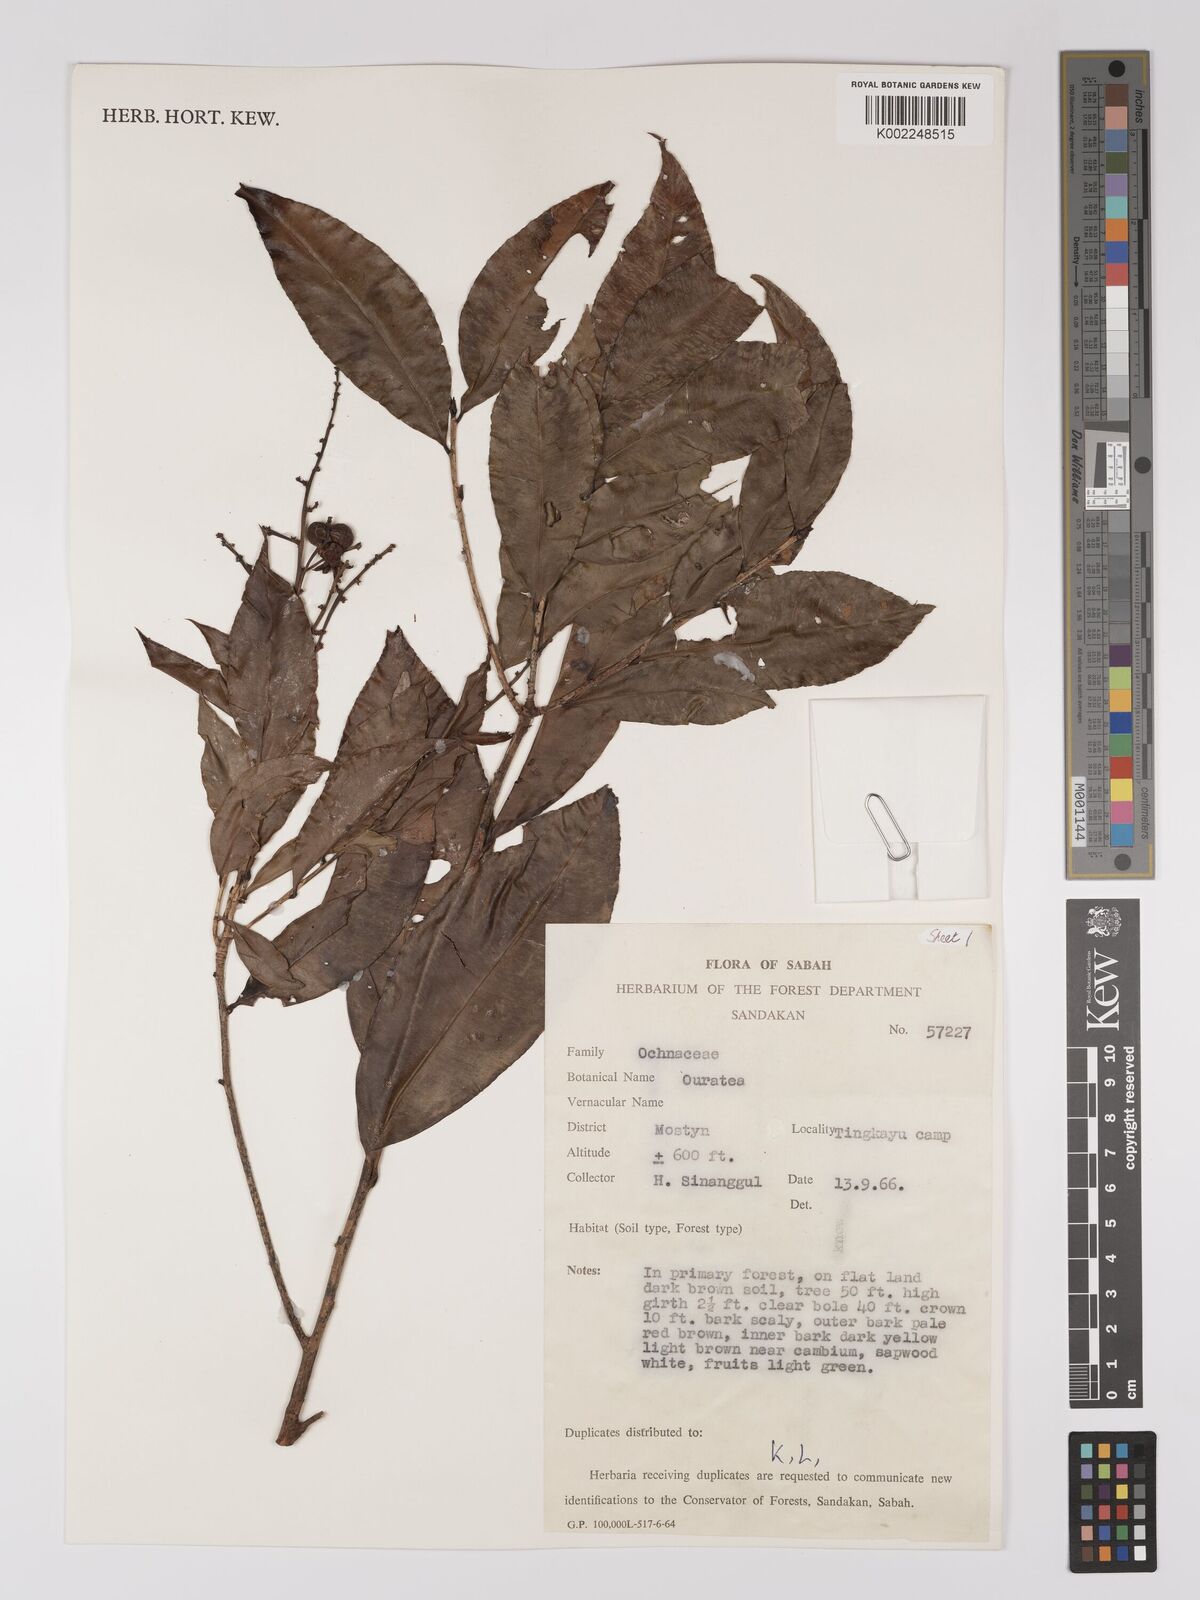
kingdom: Plantae
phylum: Tracheophyta
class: Magnoliopsida
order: Malpighiales
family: Ochnaceae
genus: Gomphia
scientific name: Gomphia serrata
